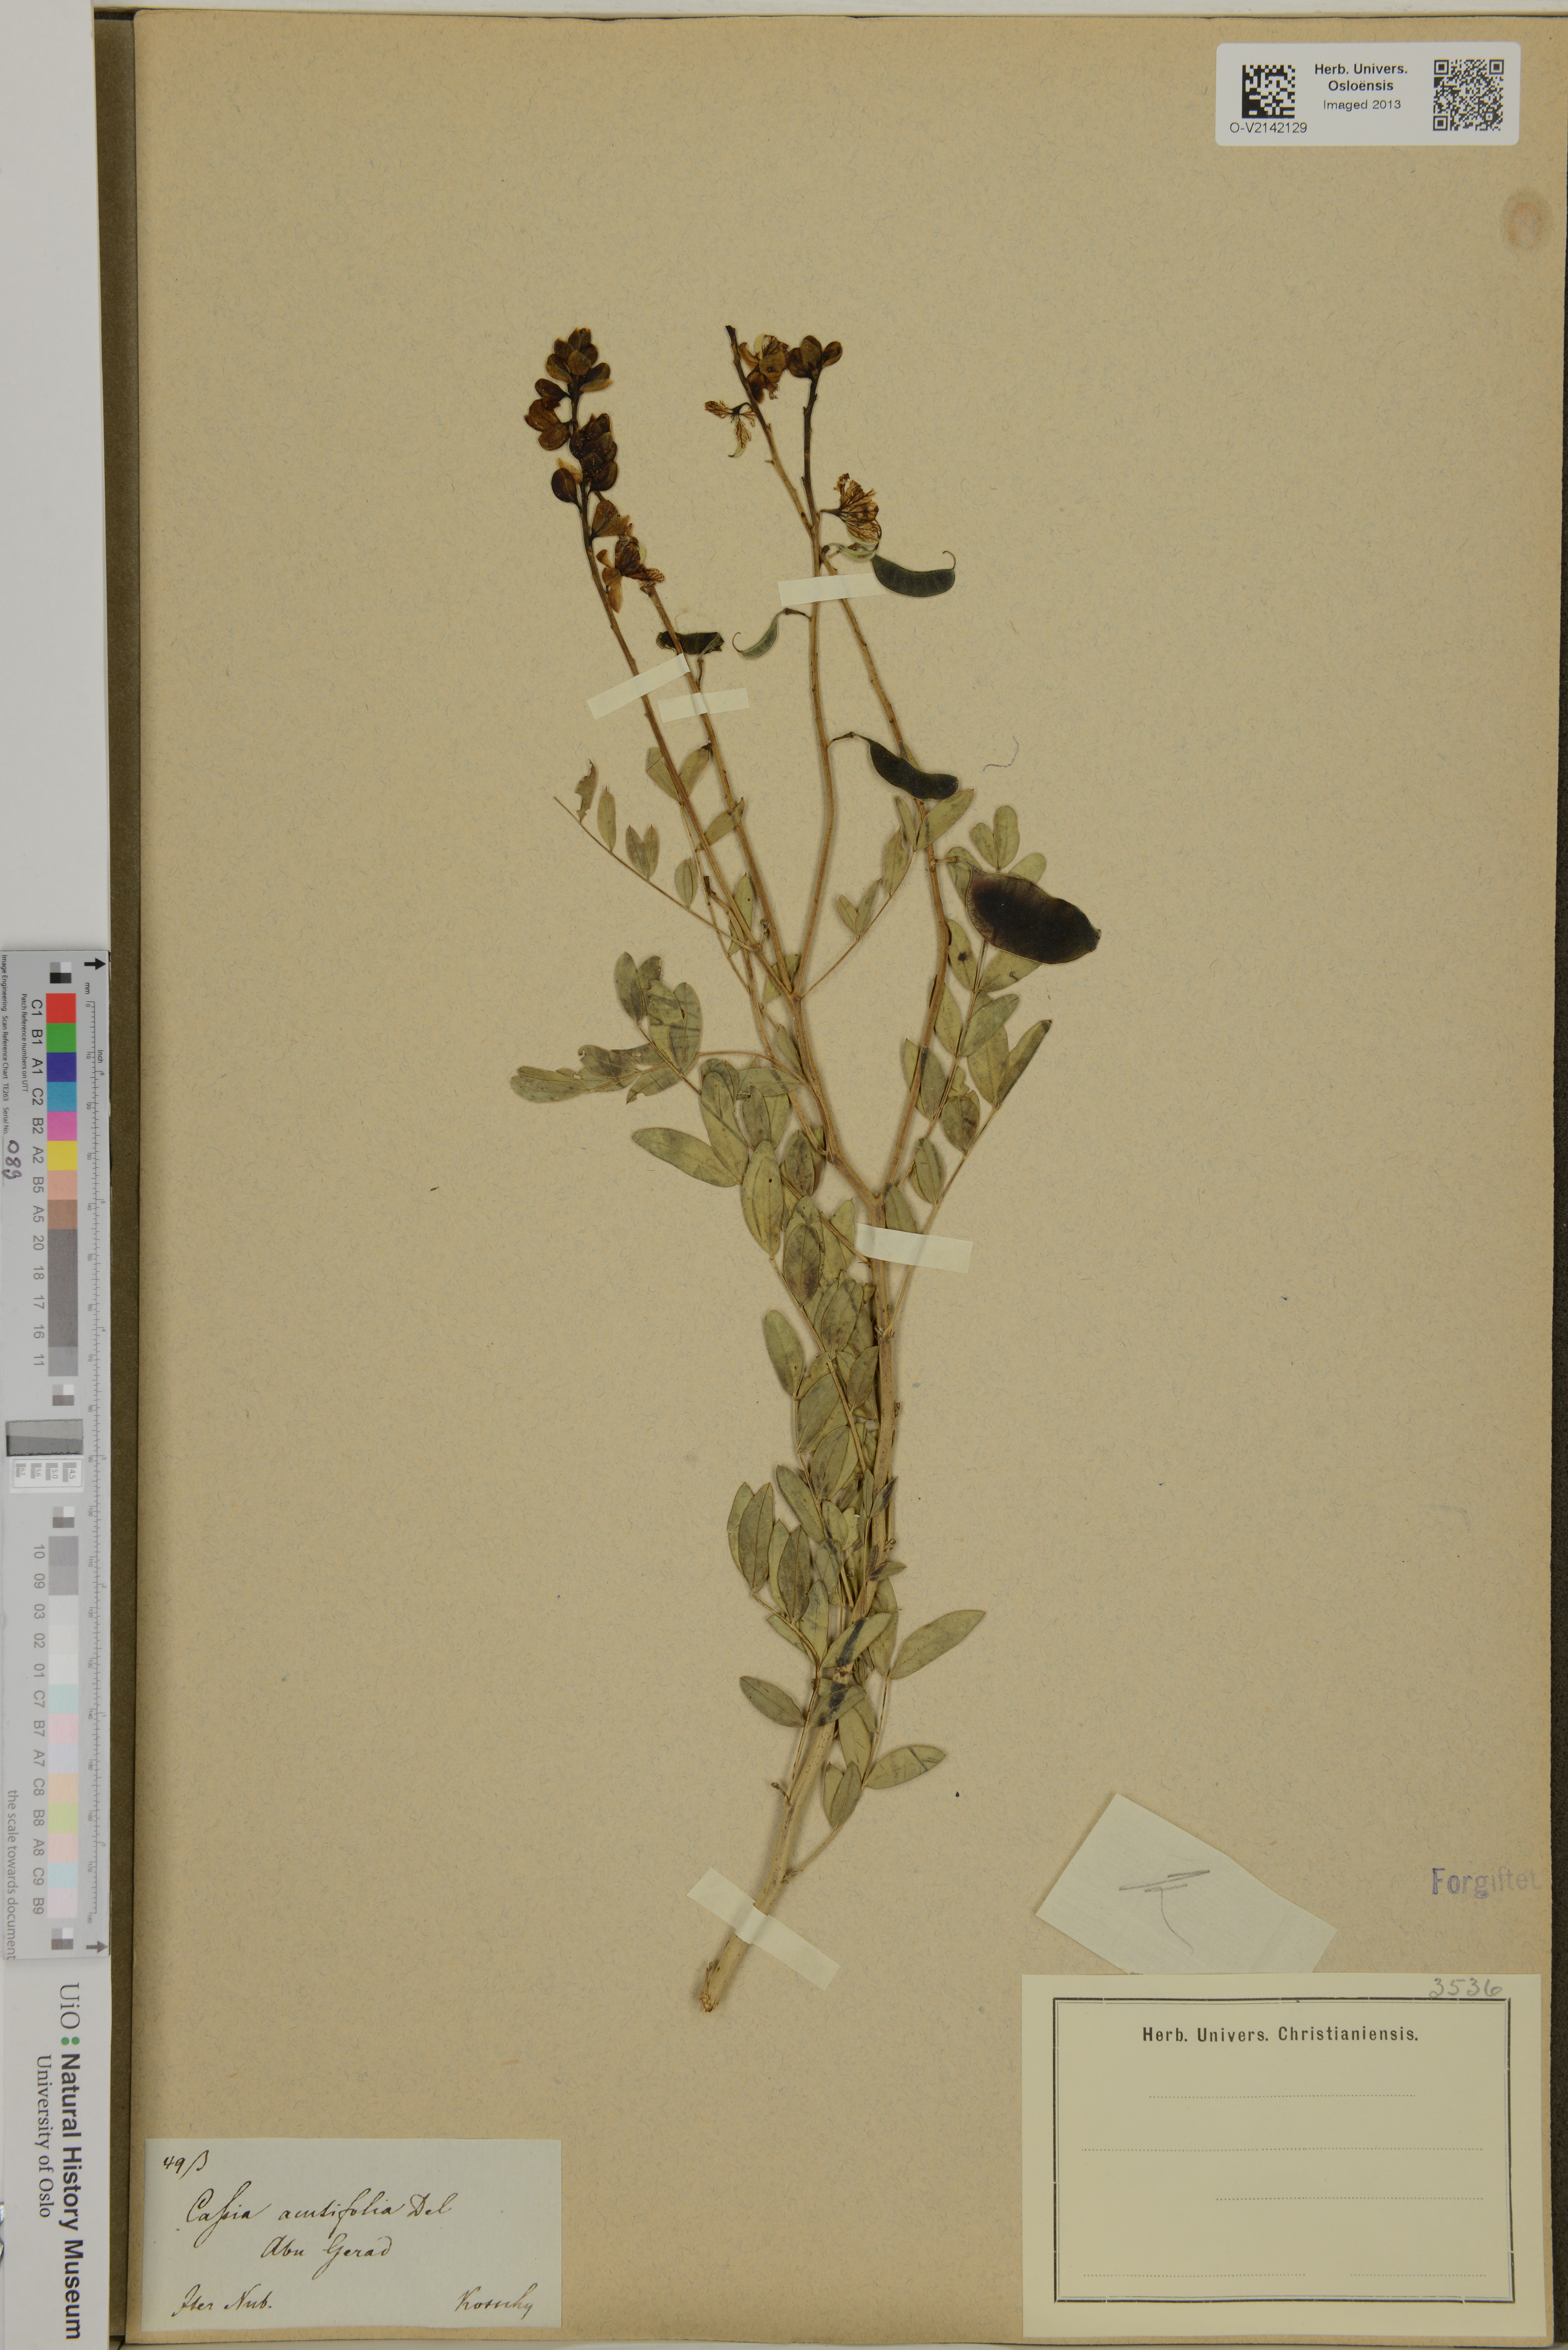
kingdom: Plantae
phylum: Tracheophyta
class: Magnoliopsida
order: Fabales
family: Fabaceae
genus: Senna
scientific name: Senna alexandrina
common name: True senna
